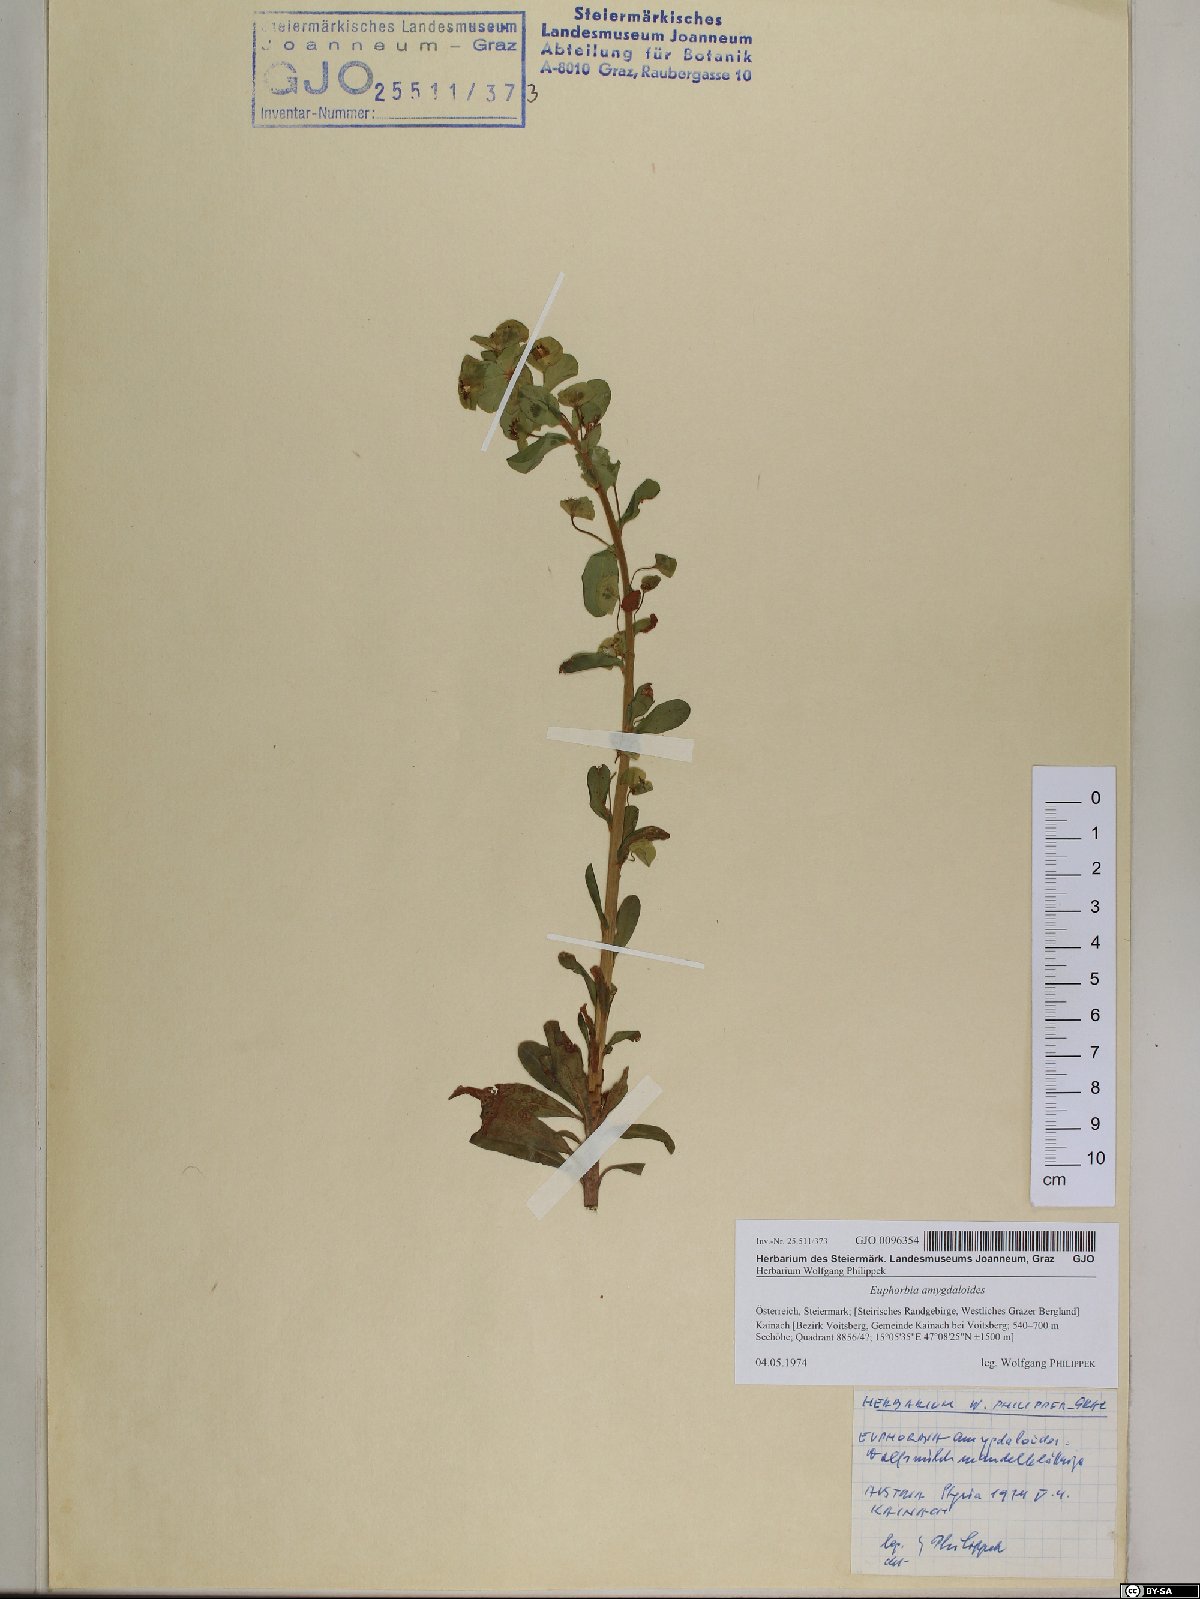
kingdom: Plantae
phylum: Tracheophyta
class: Magnoliopsida
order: Malpighiales
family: Euphorbiaceae
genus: Euphorbia
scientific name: Euphorbia amygdaloides
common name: Wood spurge
